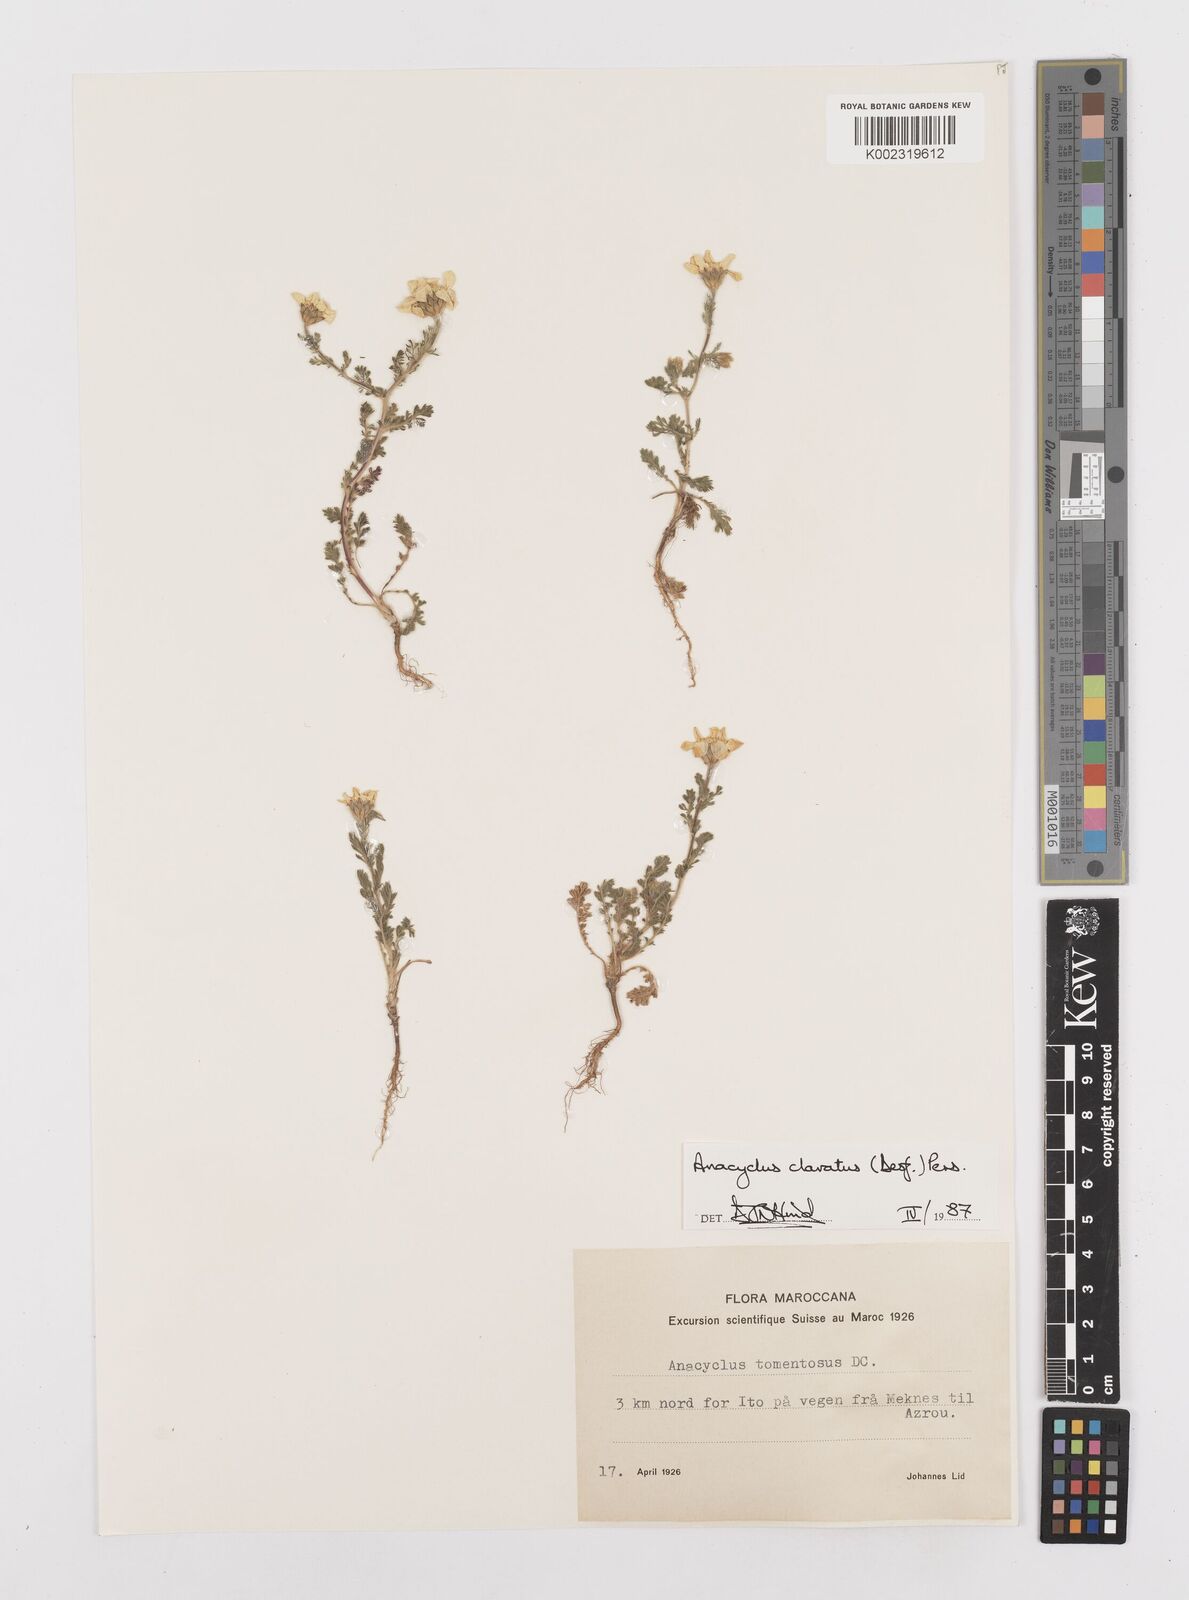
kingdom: Plantae
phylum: Tracheophyta
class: Magnoliopsida
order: Asterales
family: Asteraceae
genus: Anacyclus
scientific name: Anacyclus clavatus
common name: Whitebuttons
